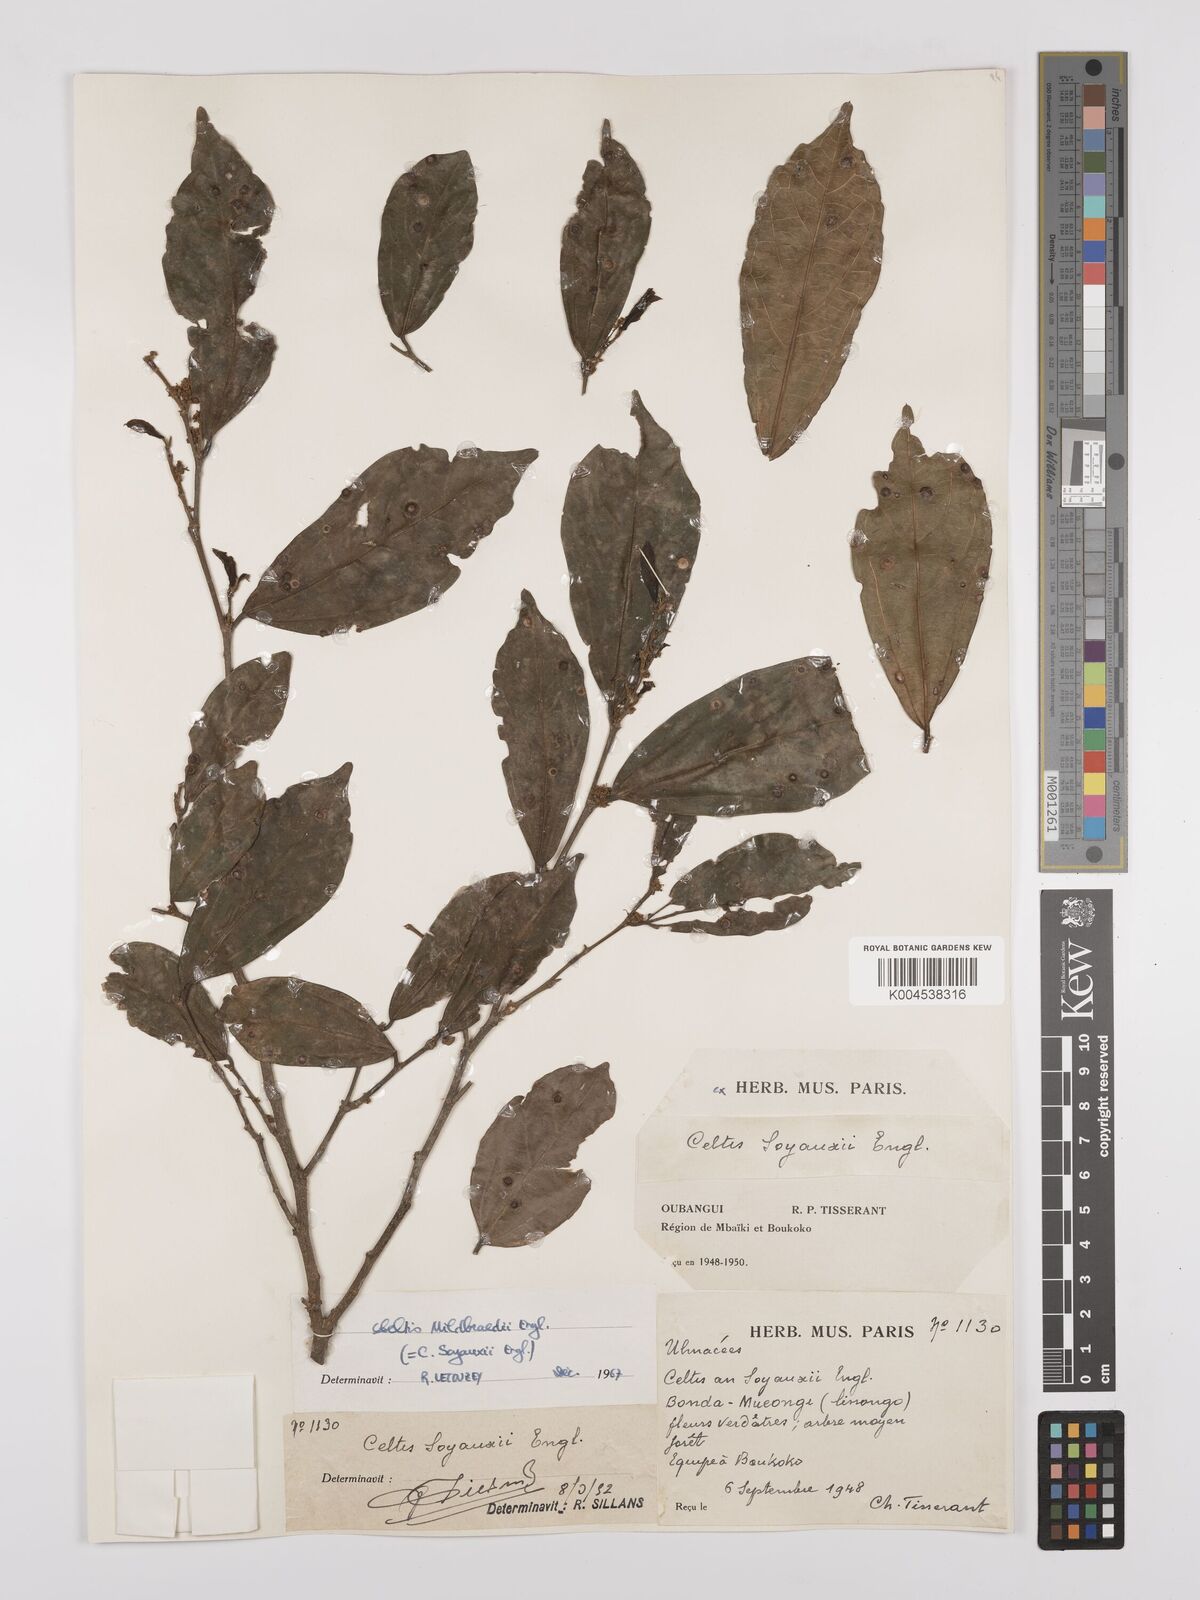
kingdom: Plantae
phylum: Tracheophyta
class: Magnoliopsida
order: Rosales
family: Cannabaceae
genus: Celtis
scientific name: Celtis mildbraedii
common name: Red-fruited stinkwood
